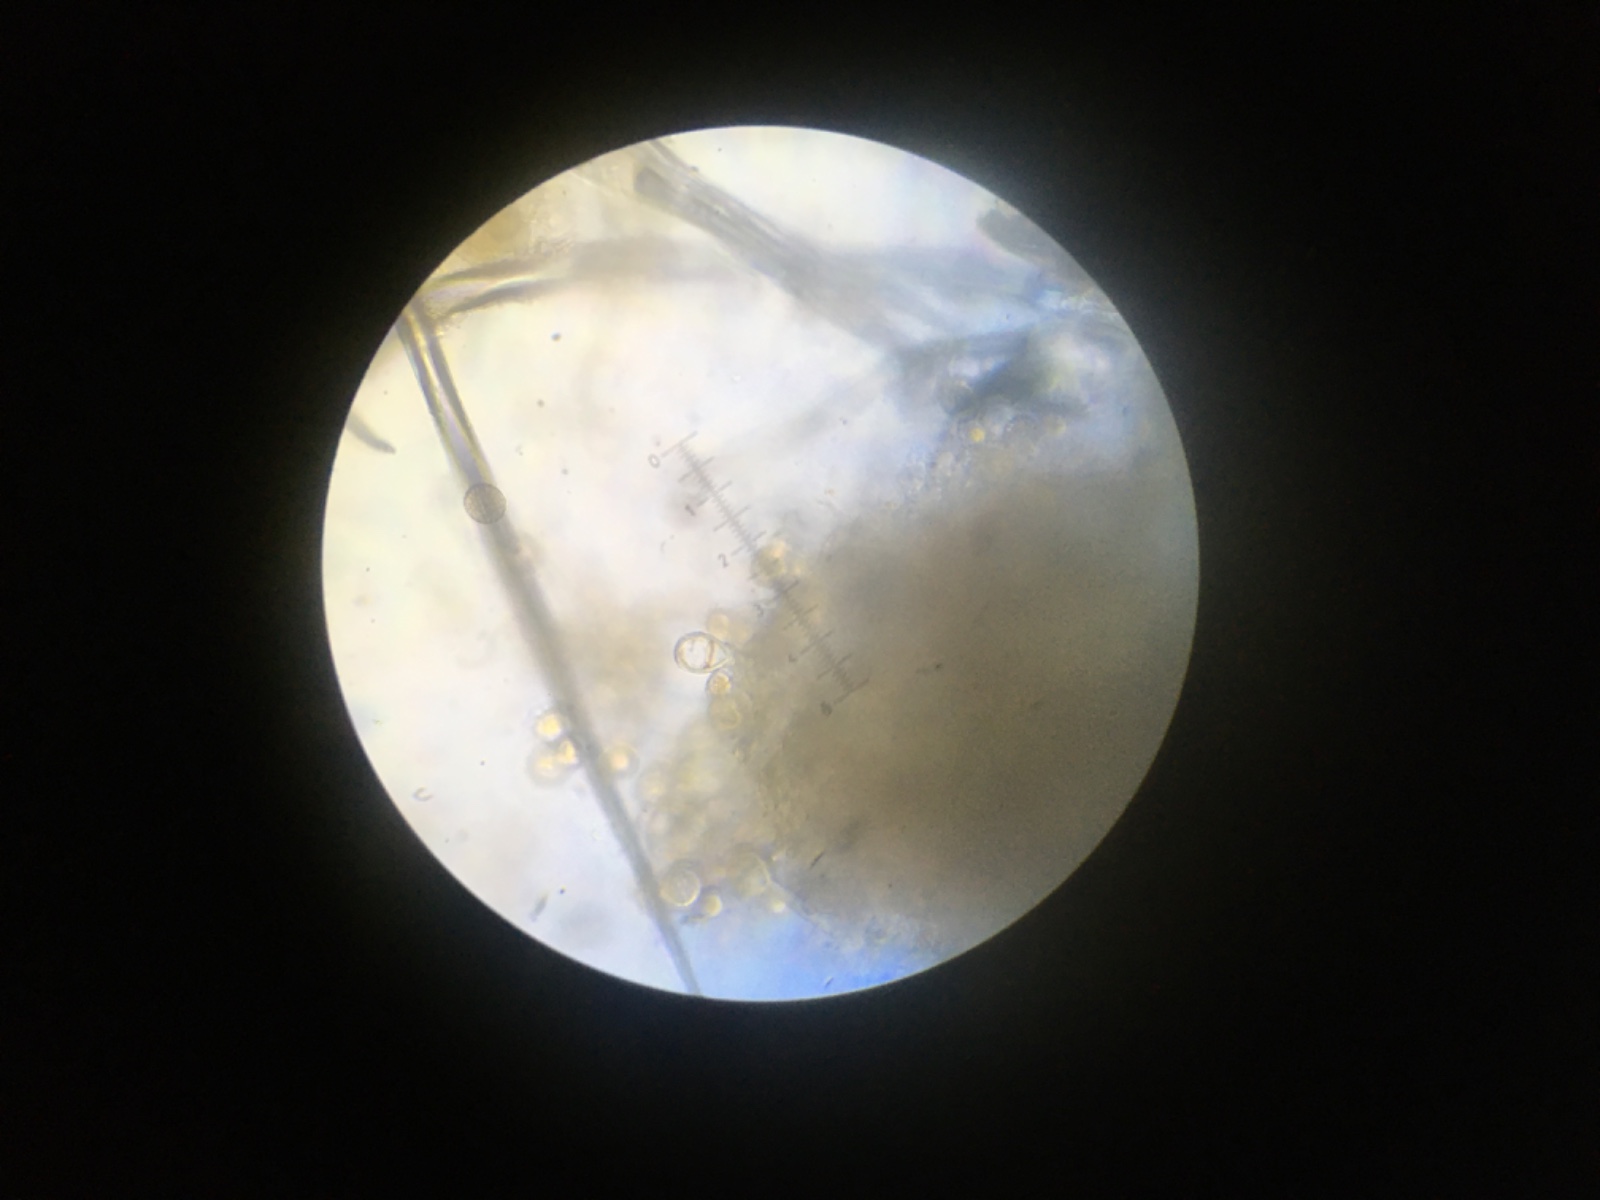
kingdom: Fungi
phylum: Basidiomycota
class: Pucciniomycetes
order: Pucciniales
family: Melampsoraceae
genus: Melampsora
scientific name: Melampsora
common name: skorperust
